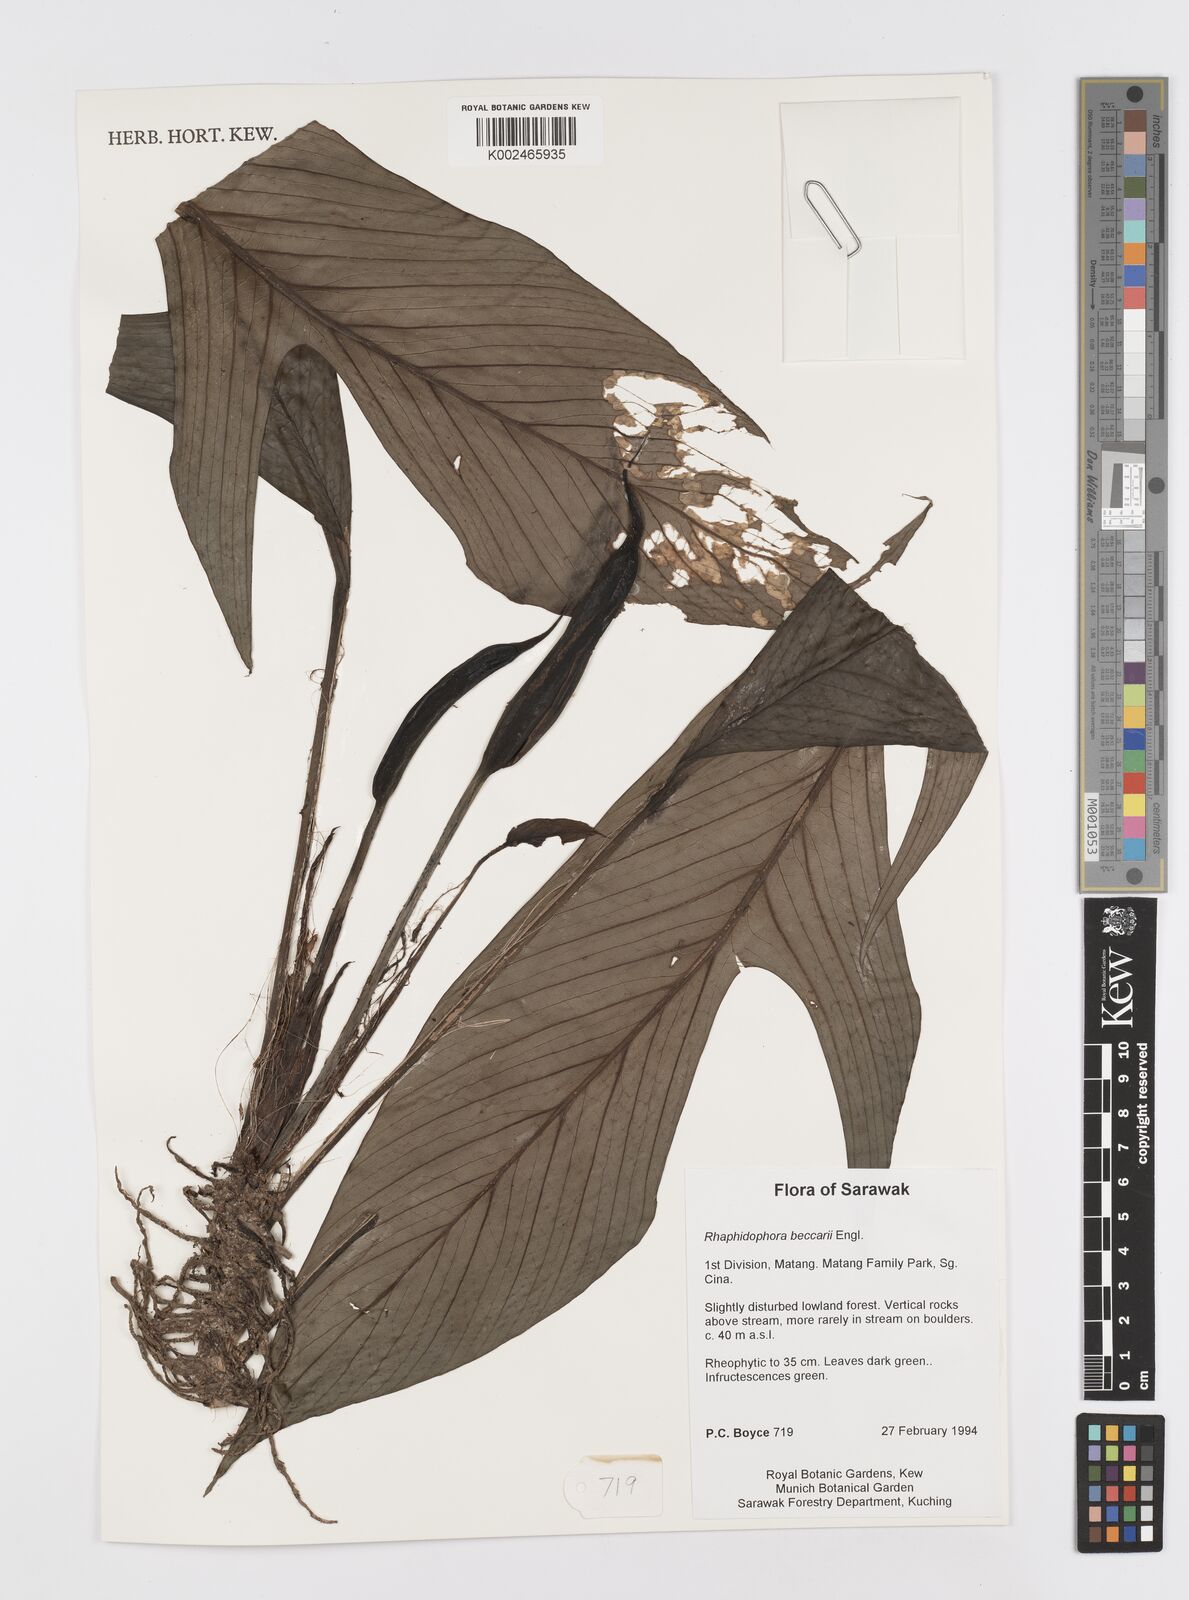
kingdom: Plantae
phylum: Tracheophyta
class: Liliopsida
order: Alismatales
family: Araceae
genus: Rhaphidophora
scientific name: Rhaphidophora beccarii
